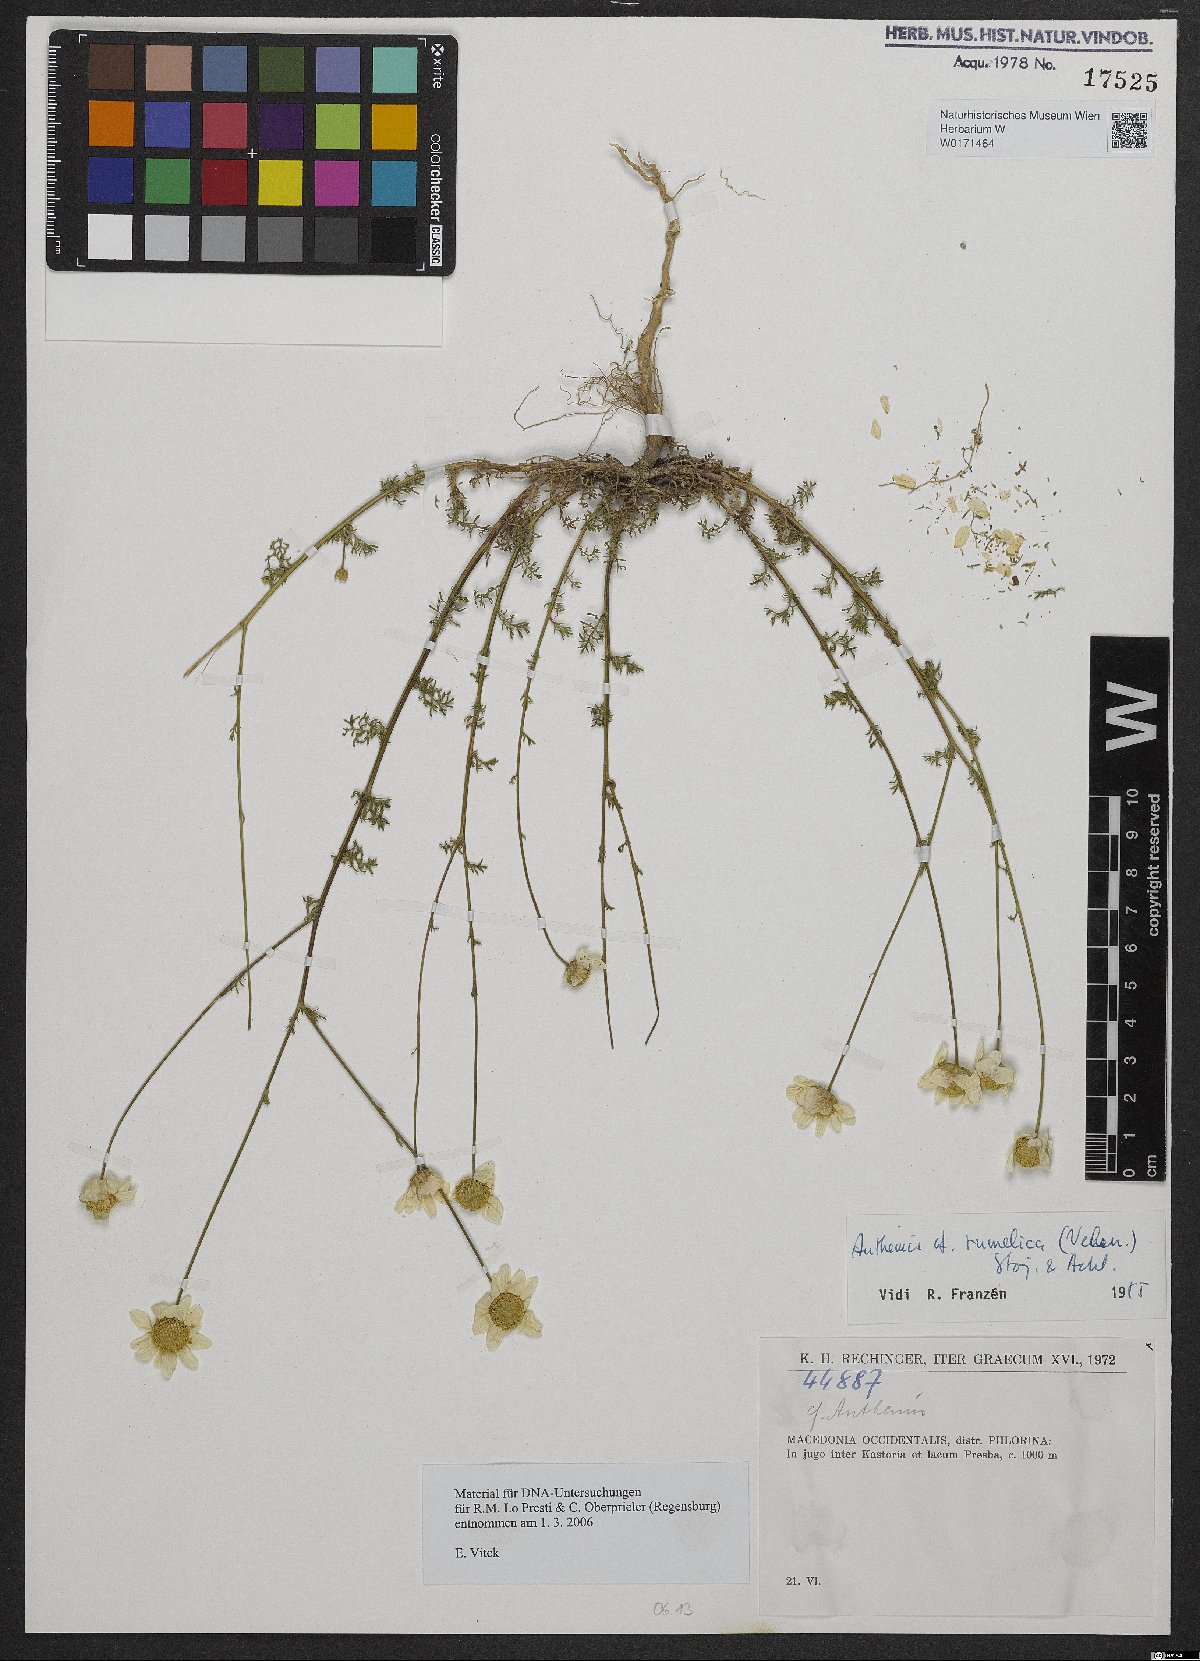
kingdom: Plantae
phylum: Tracheophyta
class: Magnoliopsida
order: Asterales
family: Asteraceae
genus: Anthemis
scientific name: Anthemis rumelica
